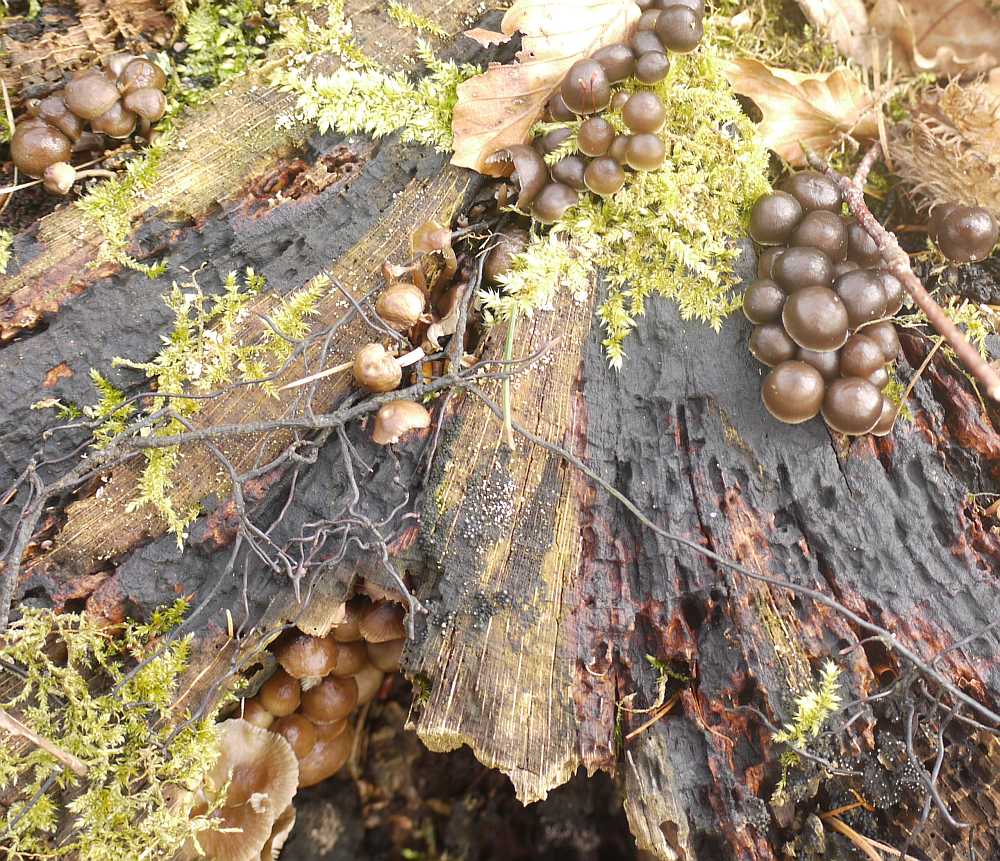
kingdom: Fungi
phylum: Basidiomycota
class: Agaricomycetes
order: Agaricales
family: Mycenaceae
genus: Mycena
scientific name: Mycena tintinnabulum
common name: vinter-huesvamp
